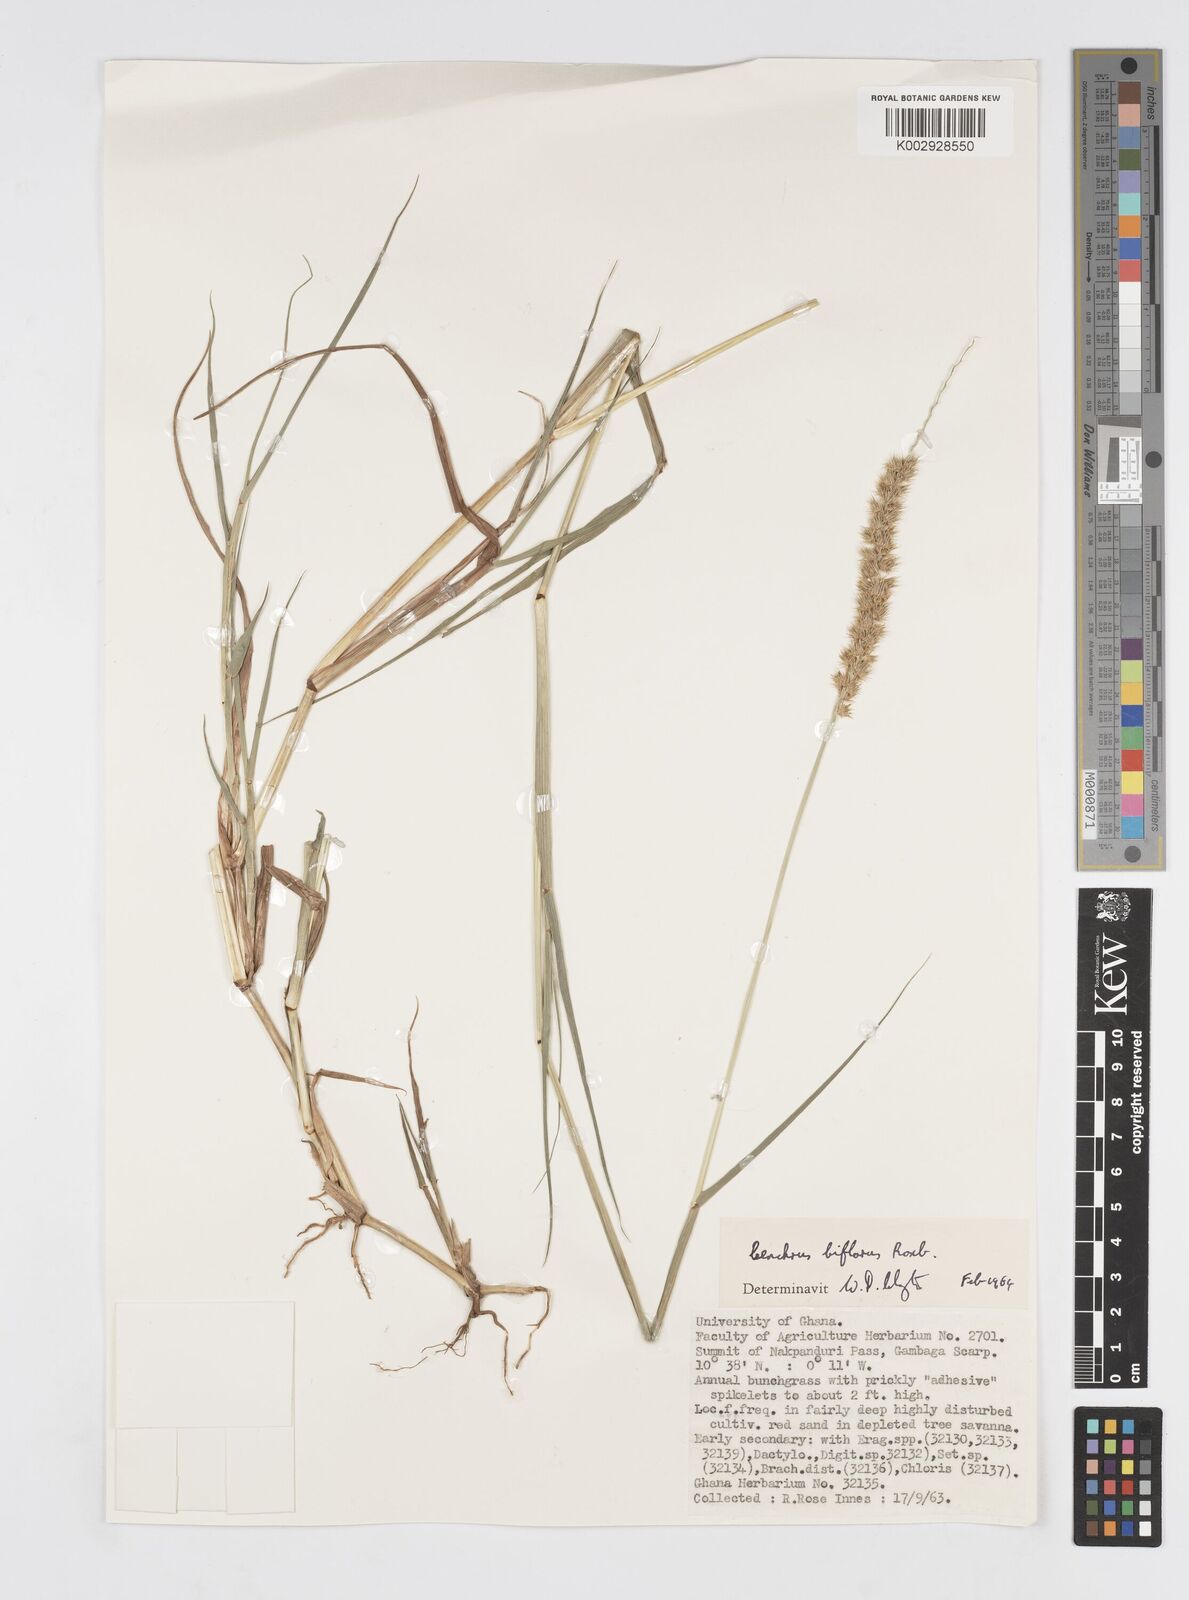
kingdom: Plantae
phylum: Tracheophyta
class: Liliopsida
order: Poales
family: Poaceae
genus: Cenchrus
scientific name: Cenchrus biflorus
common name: Indian sandbur
